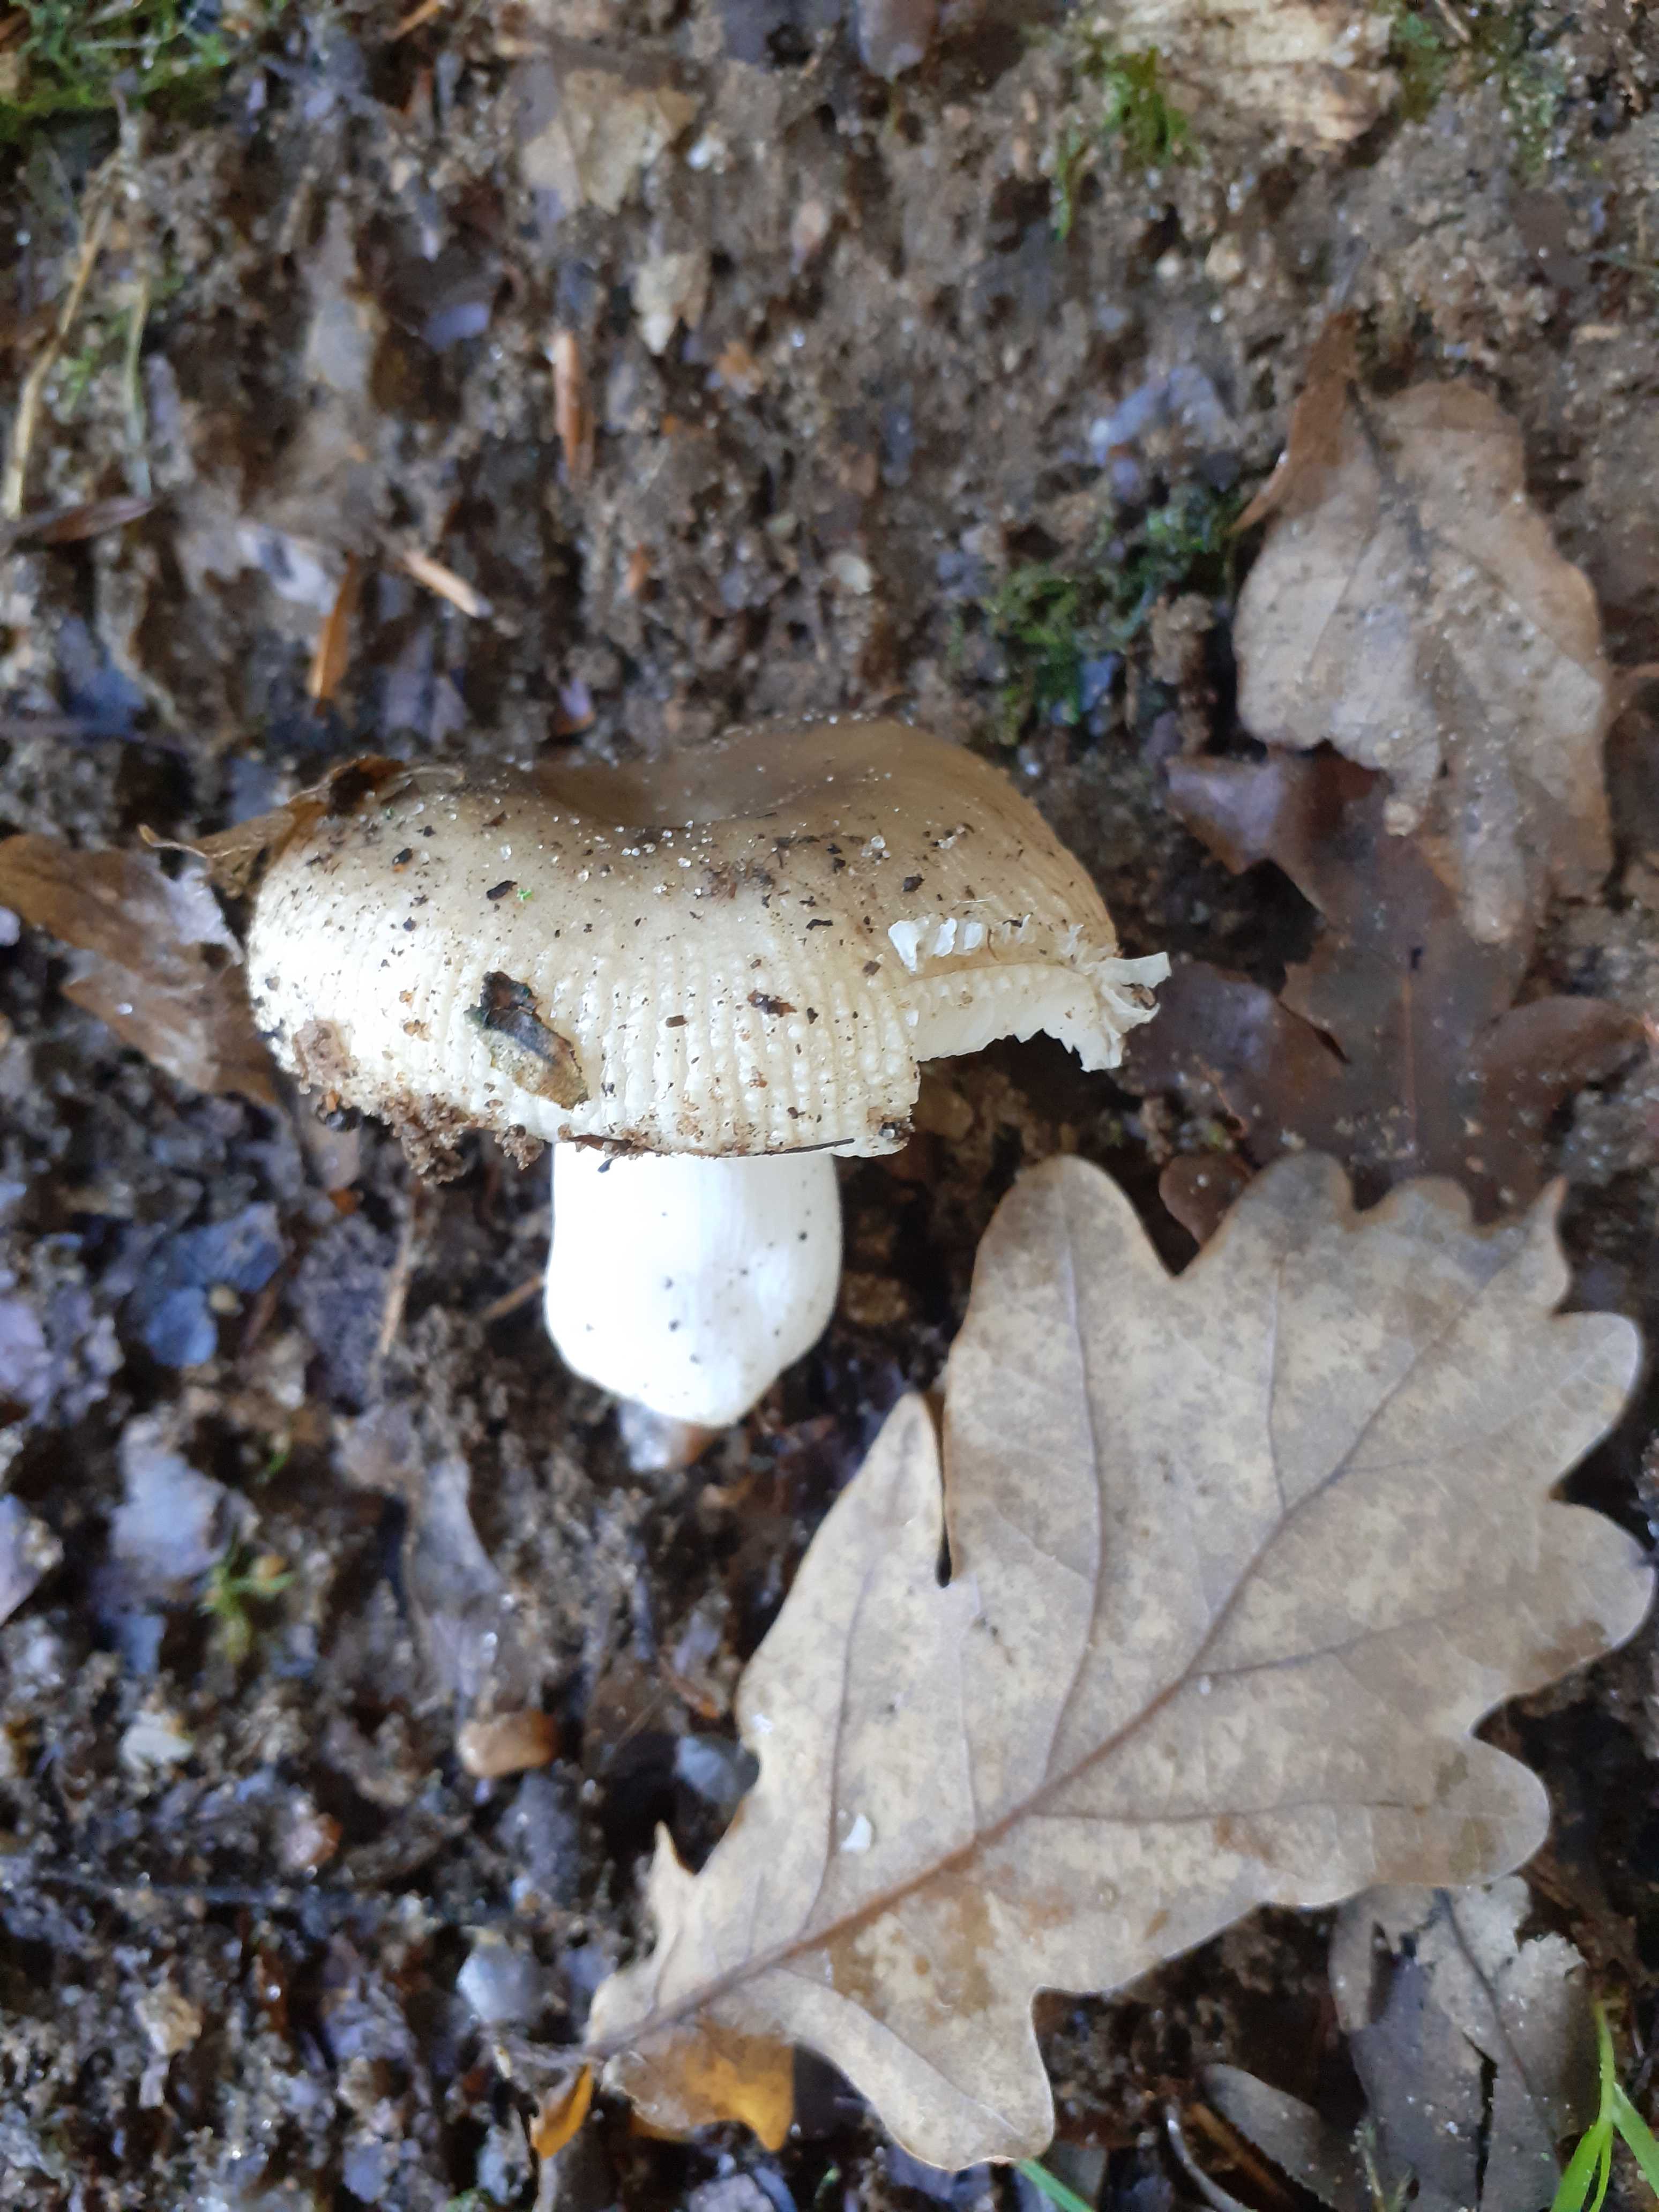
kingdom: Fungi
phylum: Basidiomycota
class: Agaricomycetes
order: Russulales
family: Russulaceae
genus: Russula
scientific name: Russula
